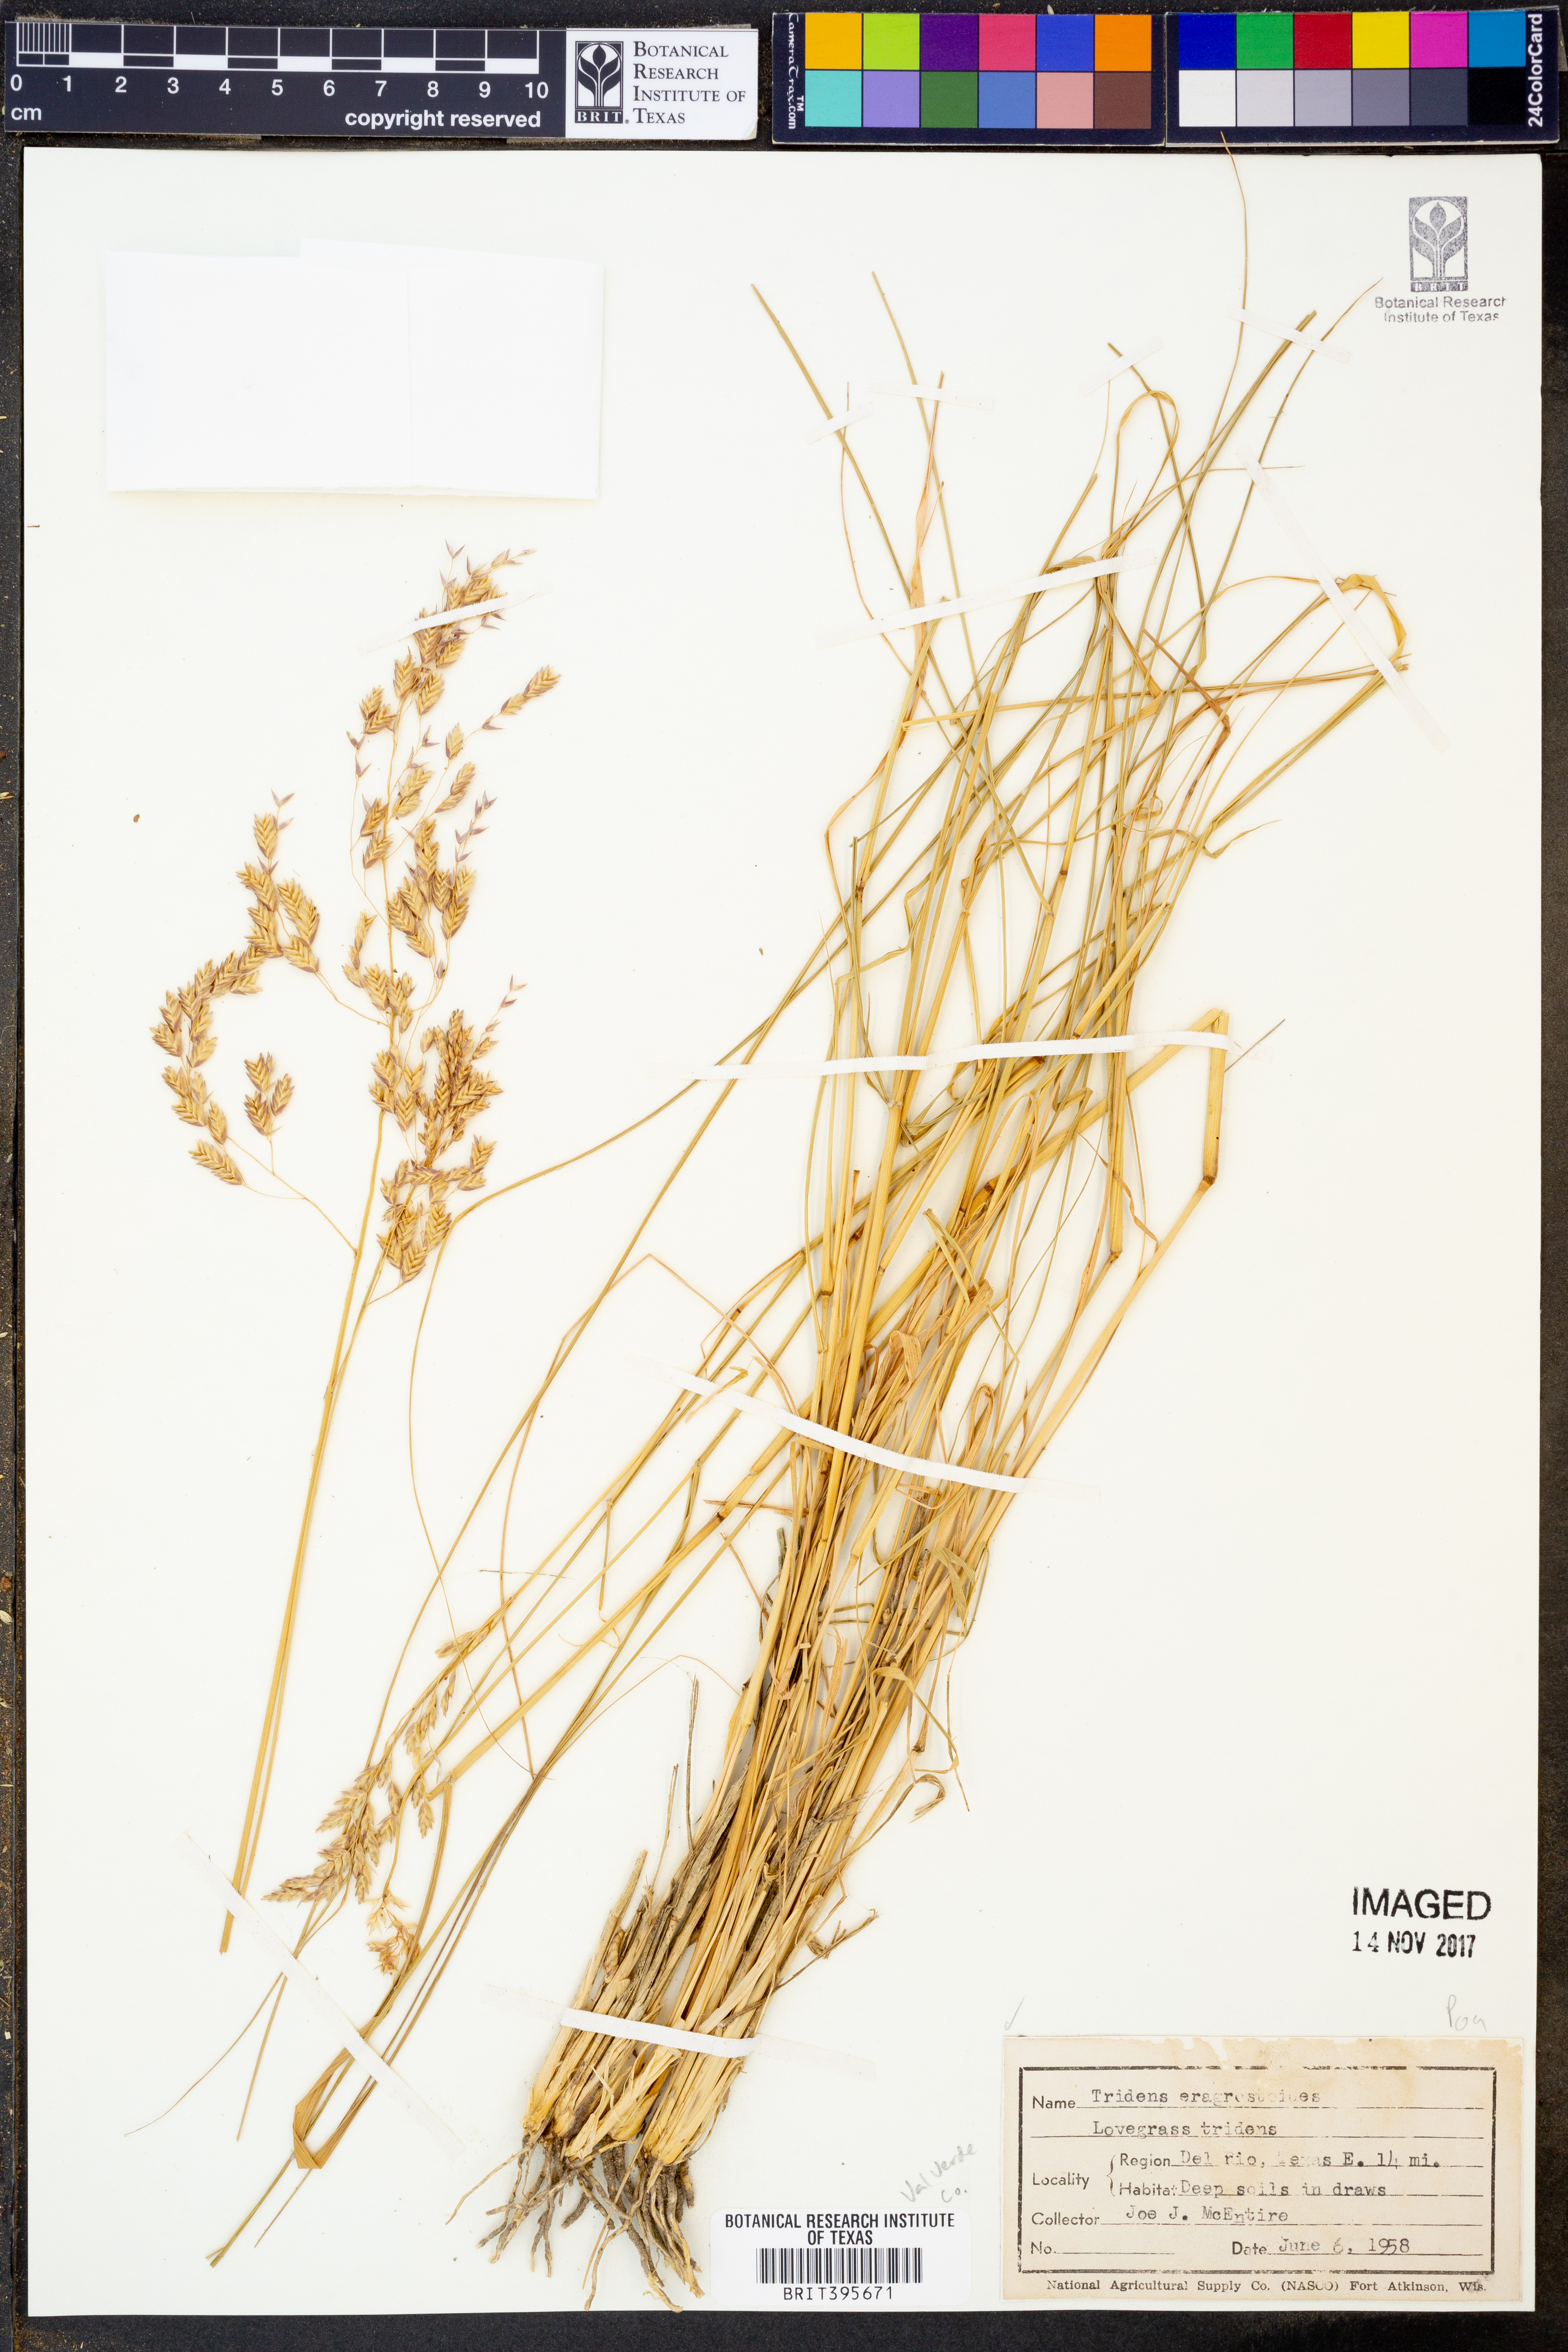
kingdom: Plantae
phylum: Tracheophyta
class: Liliopsida
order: Poales
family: Poaceae
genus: Triplasiella
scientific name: Triplasiella eragrostoides
